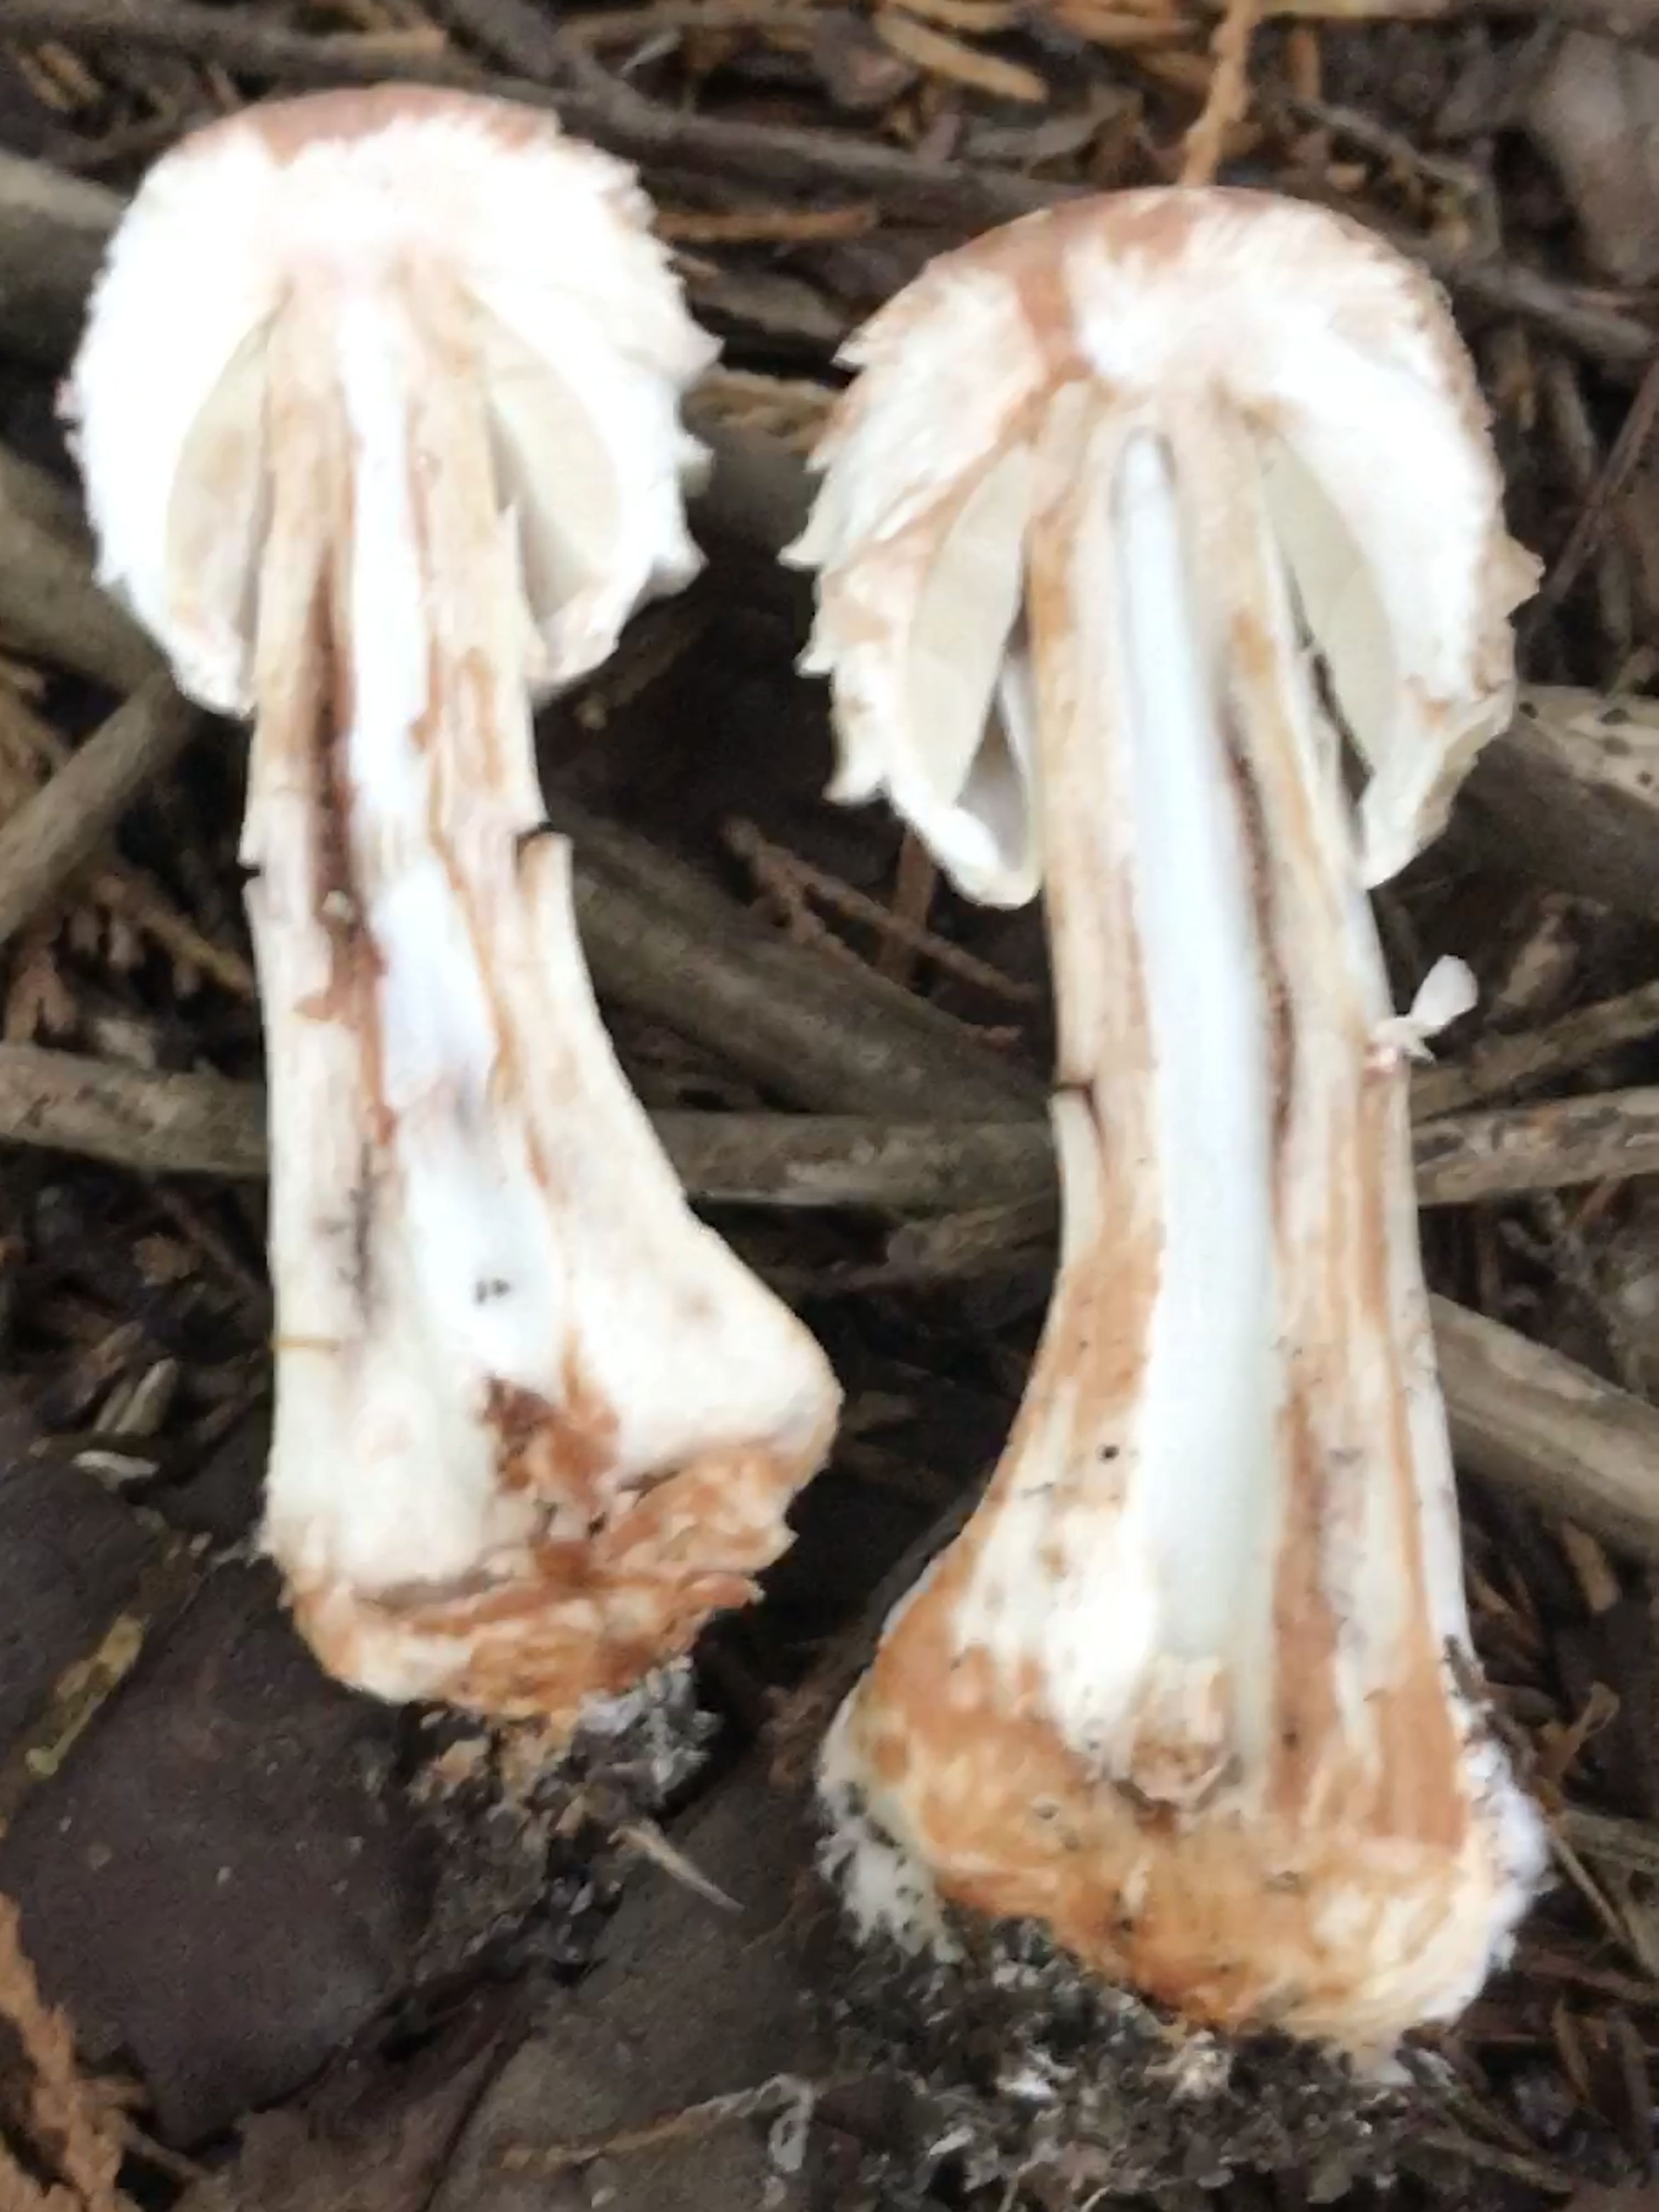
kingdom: Fungi
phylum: Basidiomycota
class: Agaricomycetes
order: Agaricales
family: Agaricaceae
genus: Chlorophyllum
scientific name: Chlorophyllum olivieri
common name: almindelig rabarberhat
